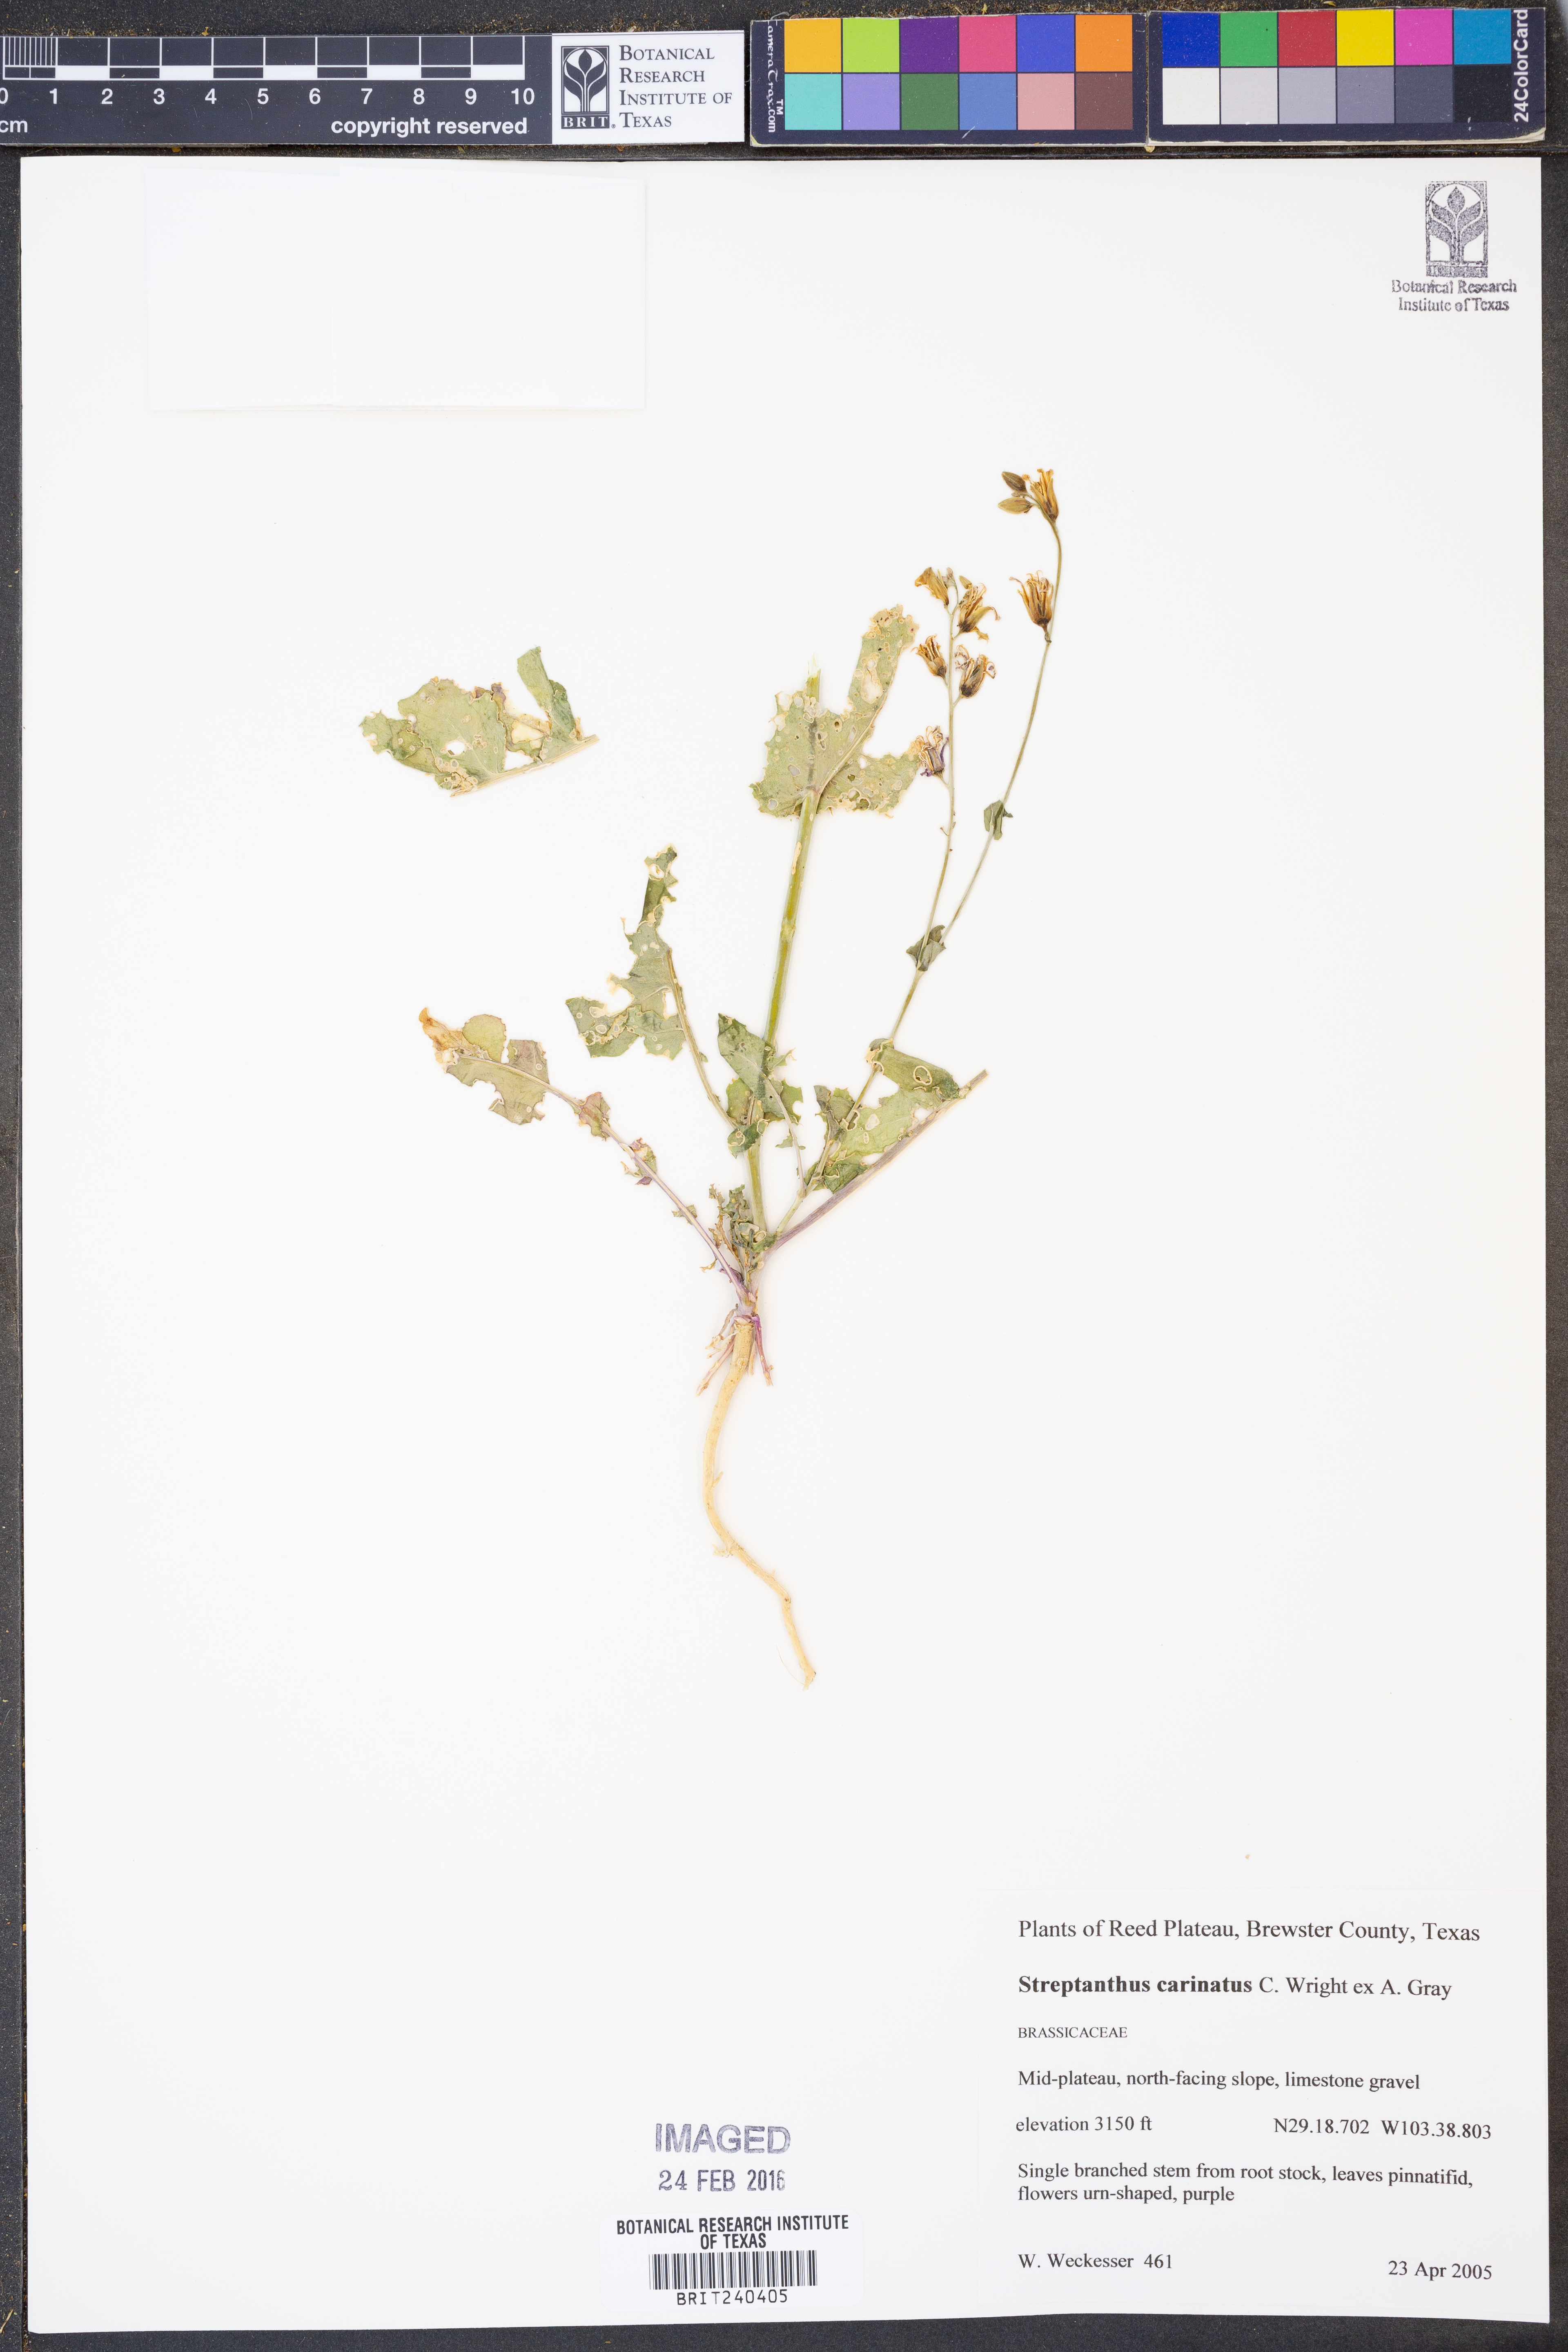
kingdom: Plantae
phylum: Tracheophyta
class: Magnoliopsida
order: Brassicales
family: Brassicaceae
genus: Streptanthus
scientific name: Streptanthus carinatus
